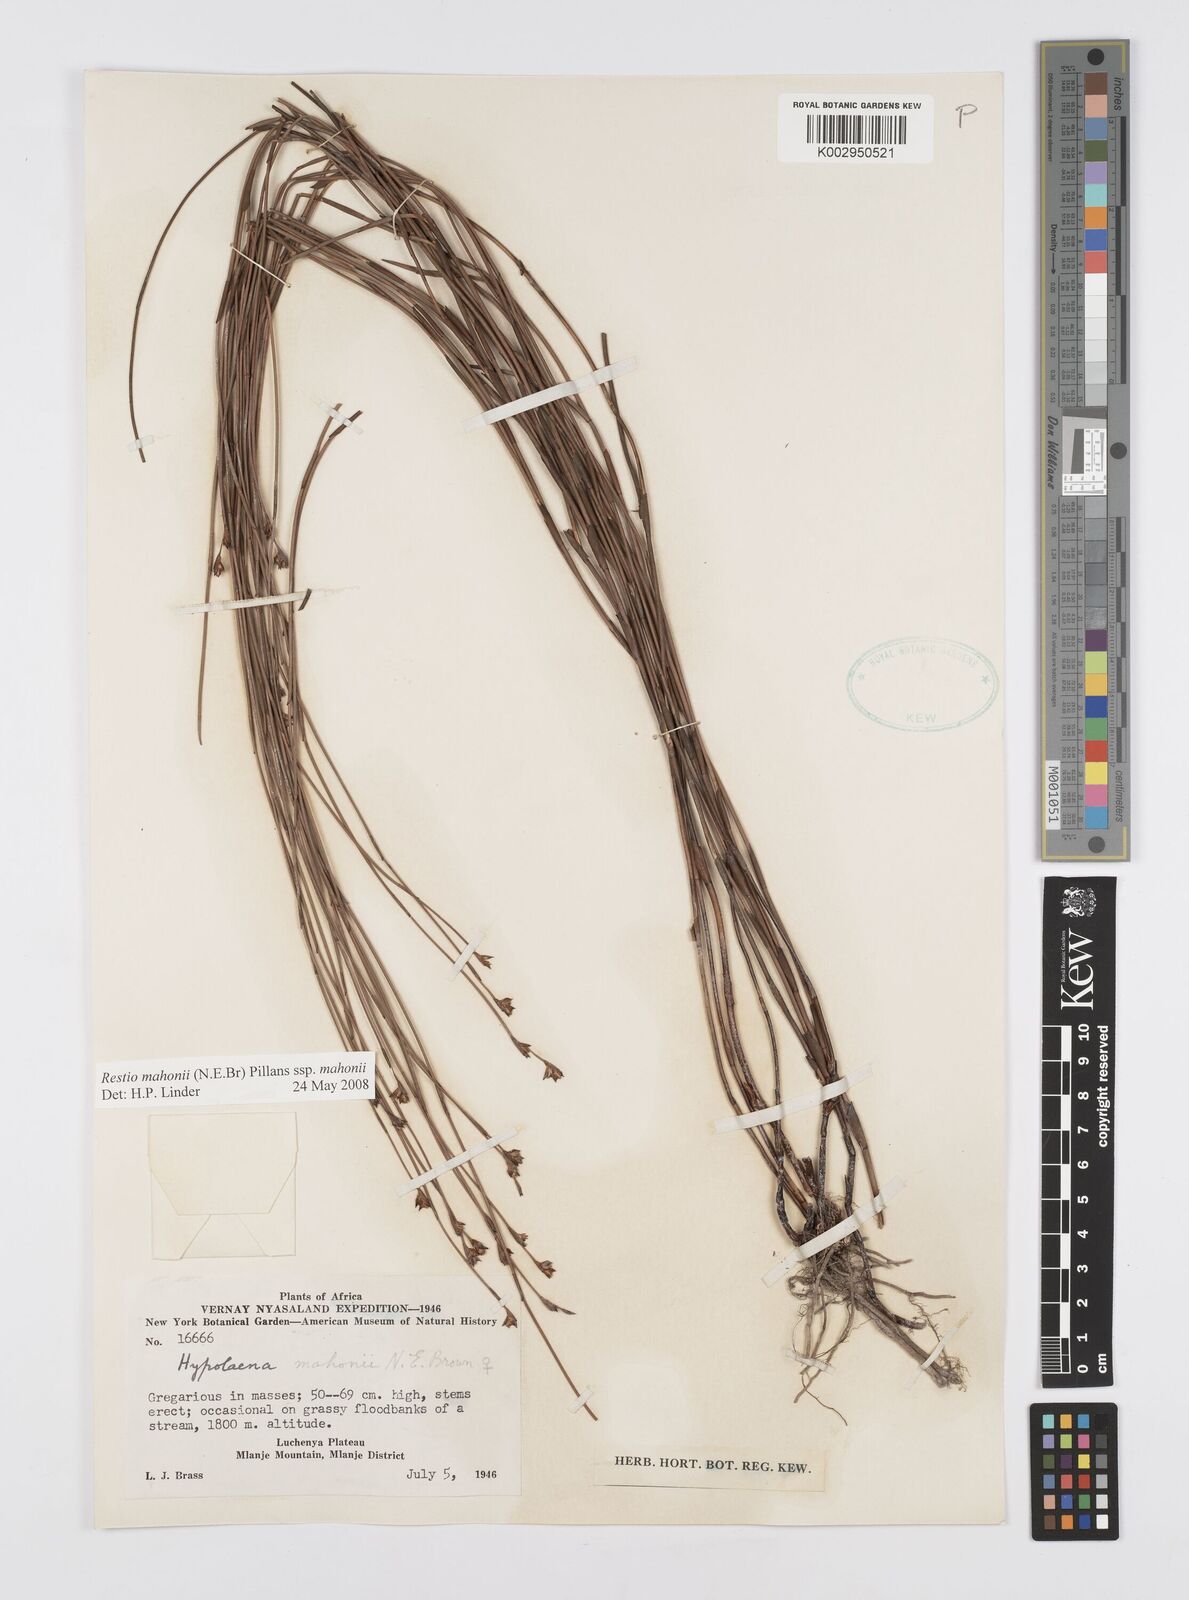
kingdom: Plantae
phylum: Tracheophyta
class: Liliopsida
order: Poales
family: Restionaceae
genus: Platycaulos
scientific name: Platycaulos mahonii
